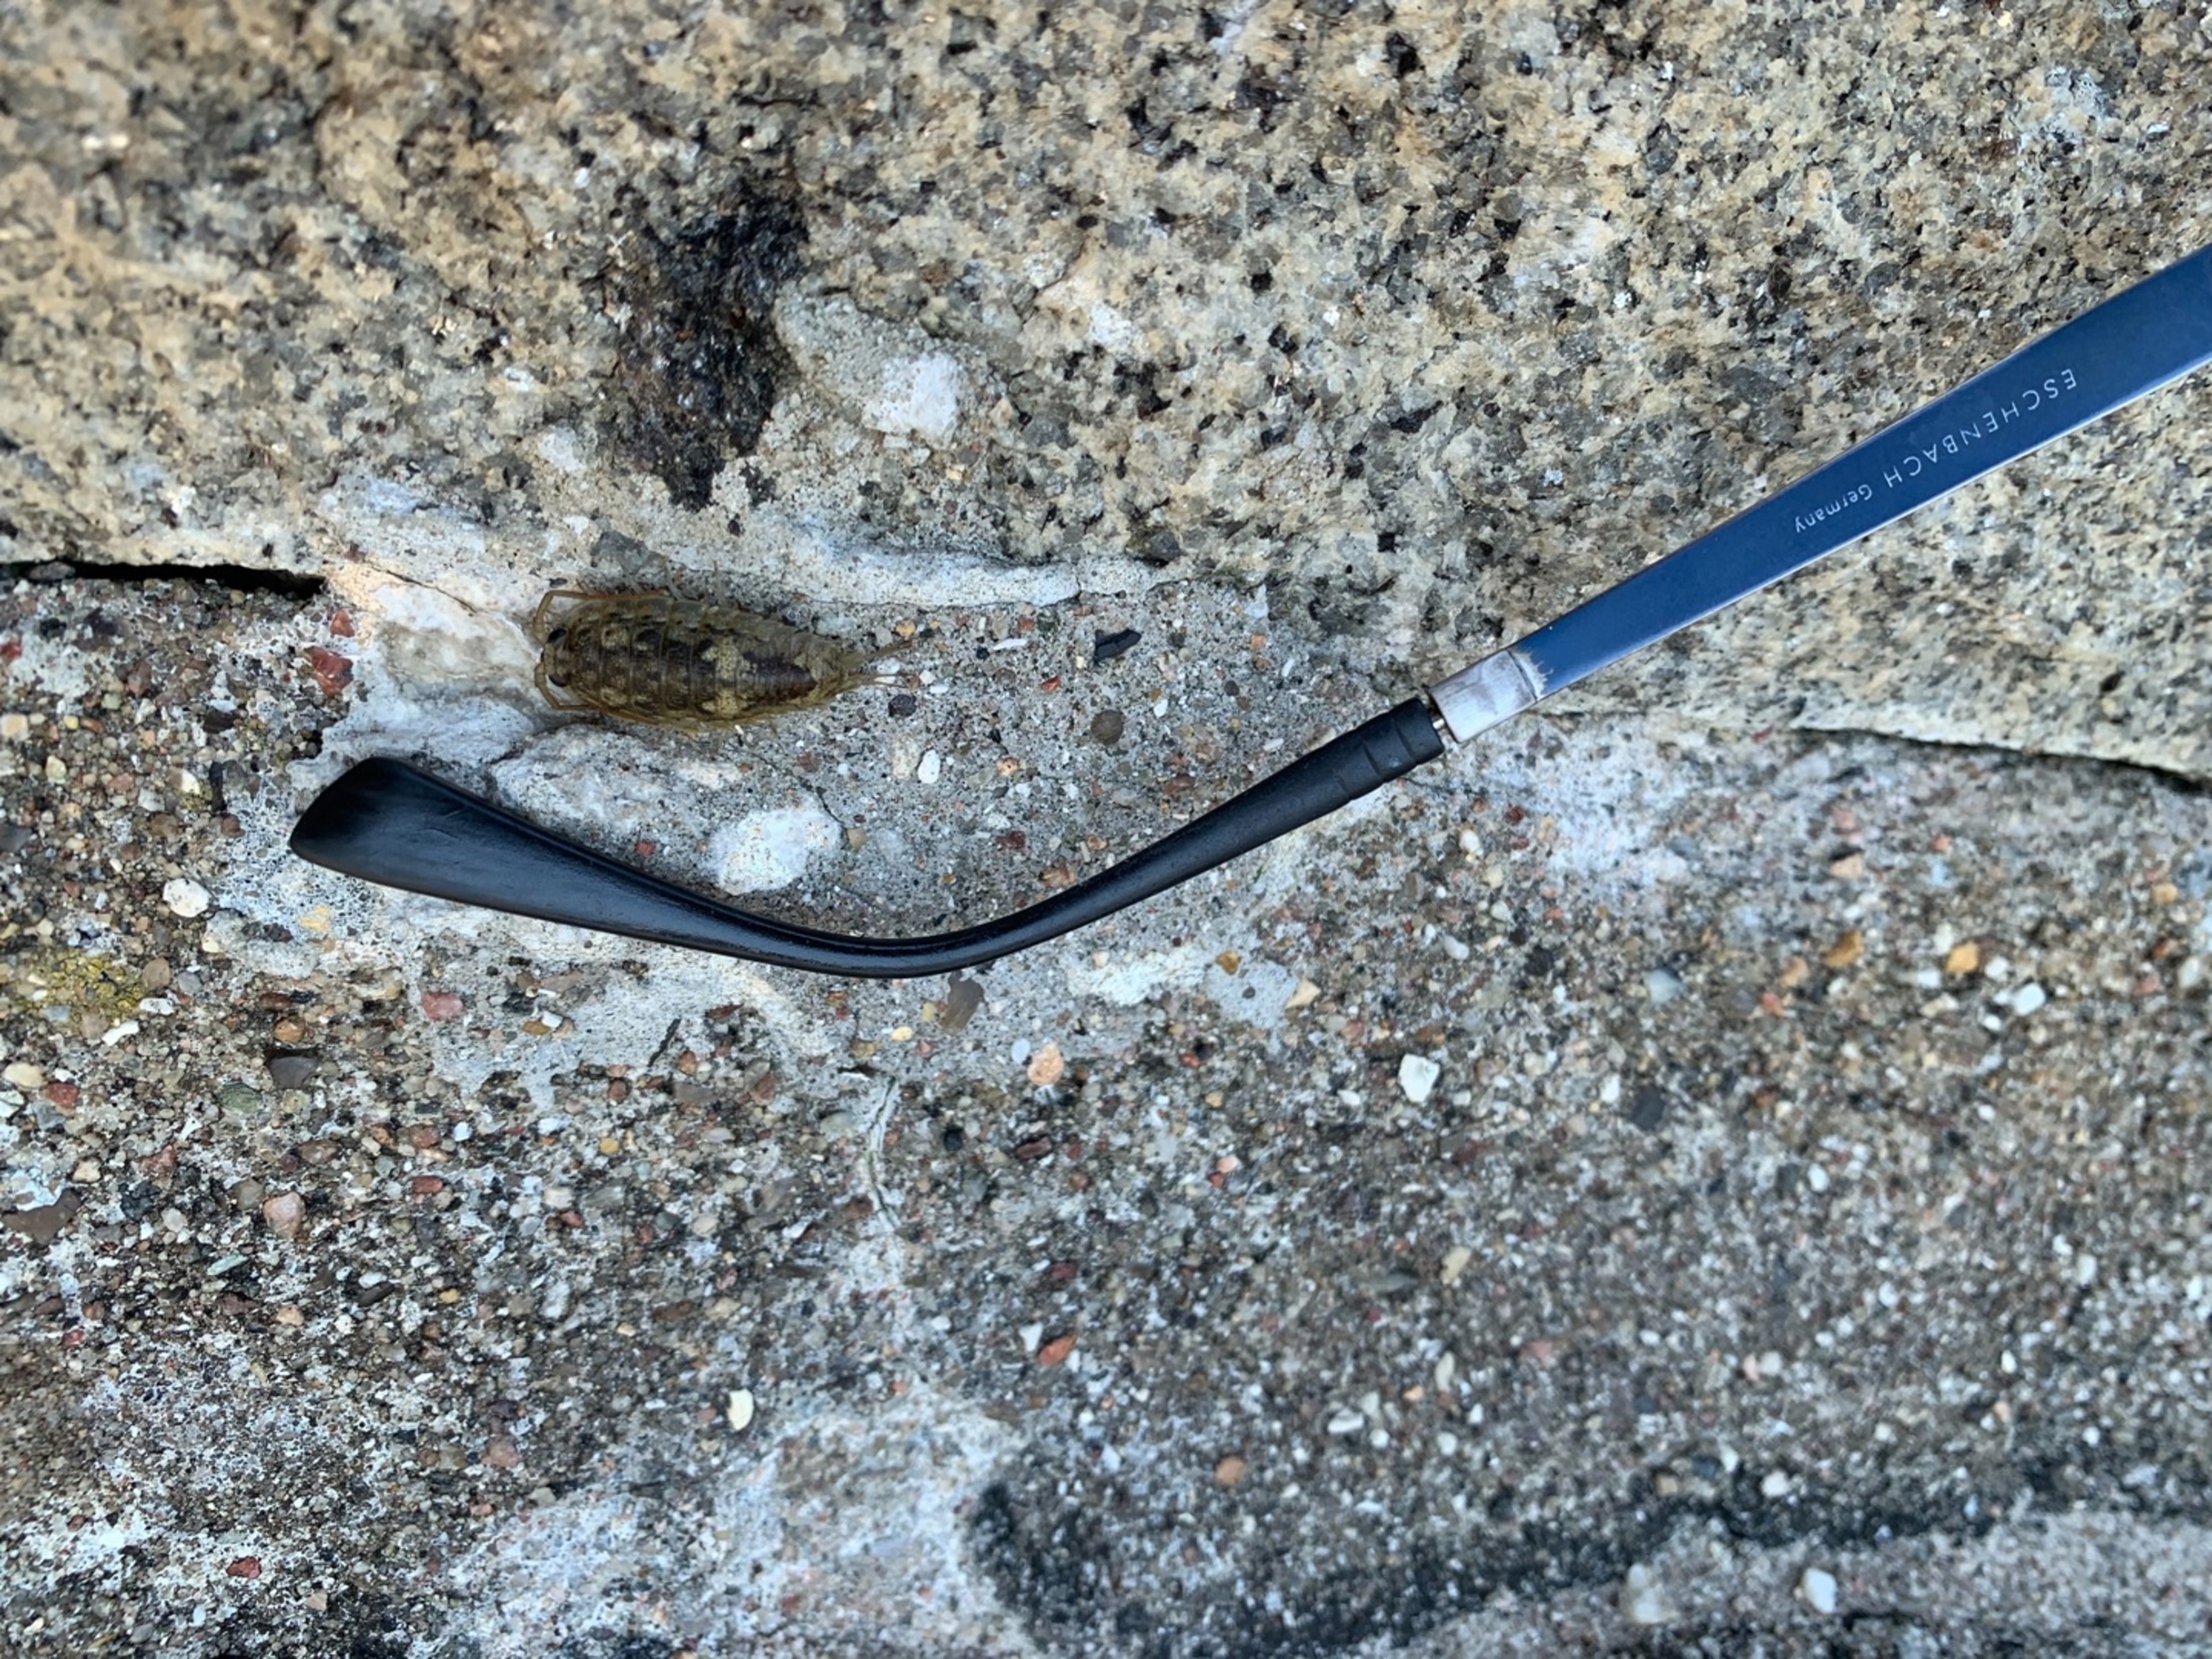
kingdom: Animalia
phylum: Arthropoda
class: Malacostraca
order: Isopoda
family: Ligiidae
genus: Ligia
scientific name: Ligia oceanica
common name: Havbænkebider
